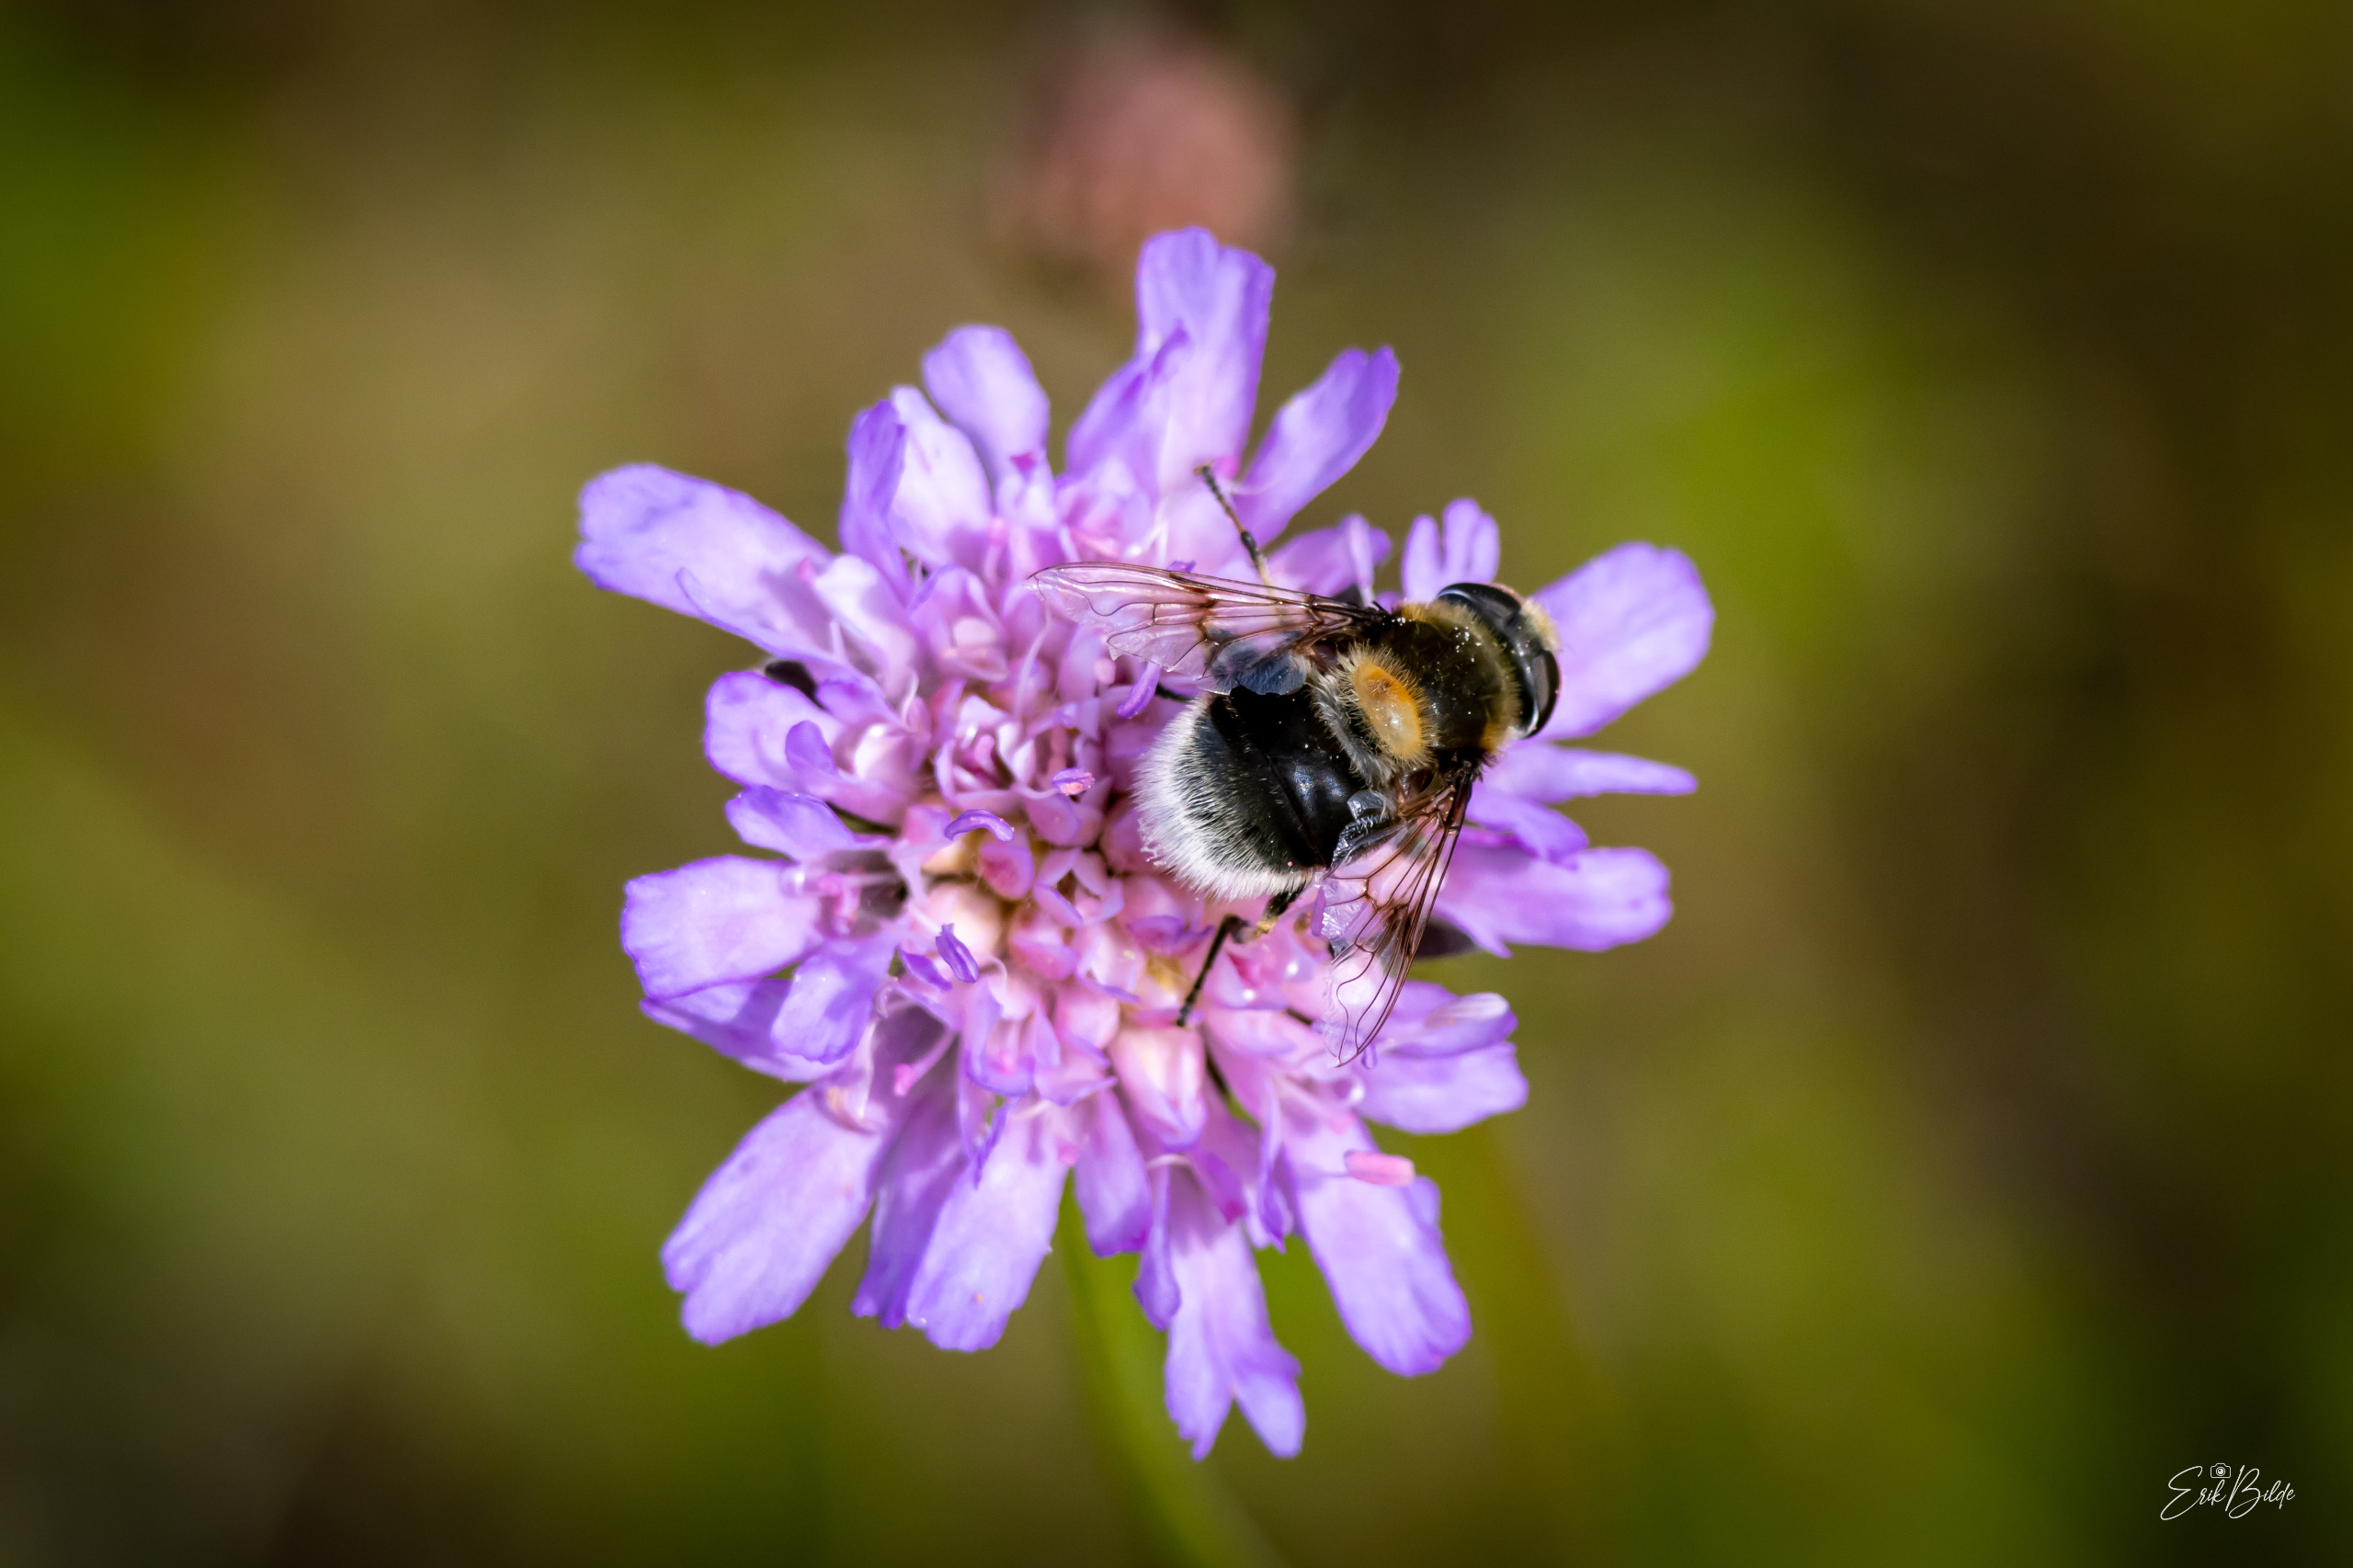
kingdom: Animalia
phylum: Arthropoda
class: Insecta
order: Diptera
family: Syrphidae
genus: Eristalis
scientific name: Eristalis intricaria
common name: Håret dyndflue
